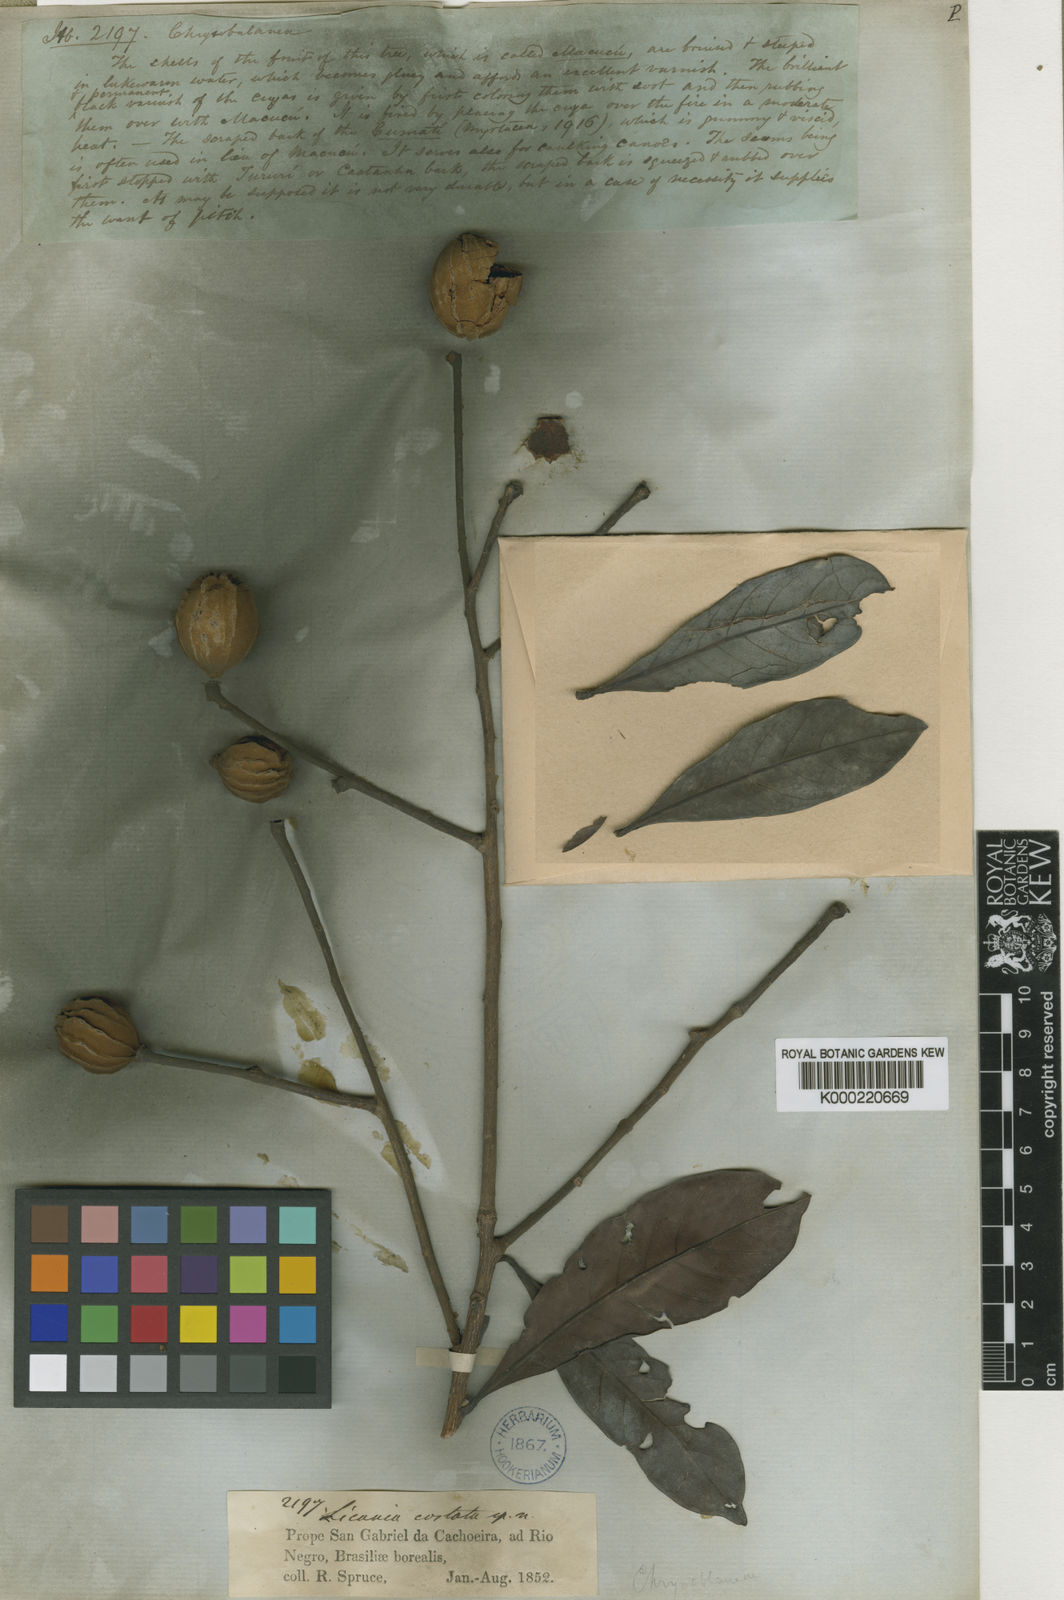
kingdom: Plantae
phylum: Tracheophyta
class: Magnoliopsida
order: Malpighiales
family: Chrysobalanaceae
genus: Hymenopus
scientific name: Hymenopus heteromorphus
